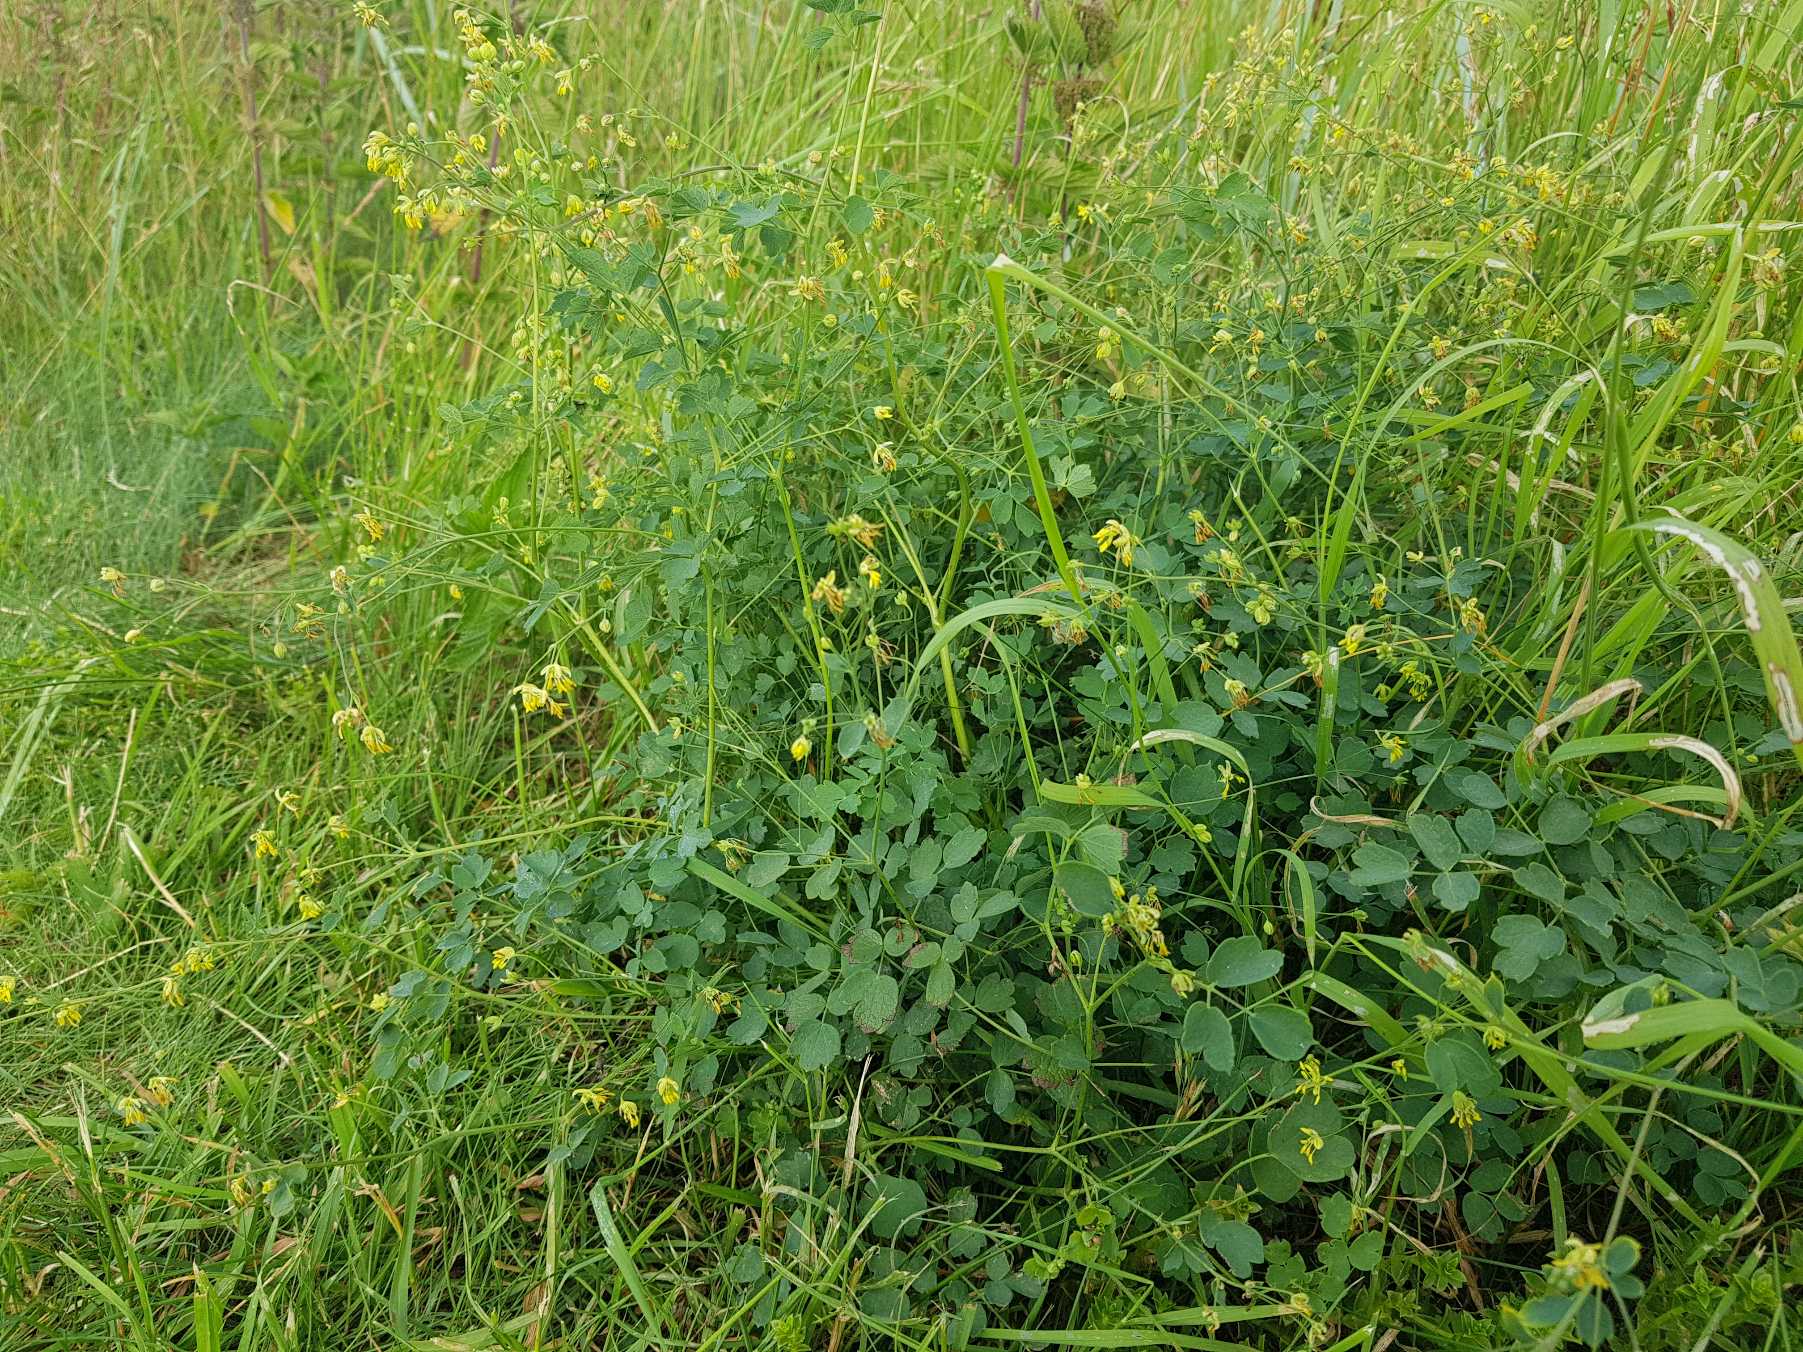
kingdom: Plantae
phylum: Tracheophyta
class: Magnoliopsida
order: Ranunculales
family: Ranunculaceae
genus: Thalictrum
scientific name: Thalictrum minus
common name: Liden frøstjerne
